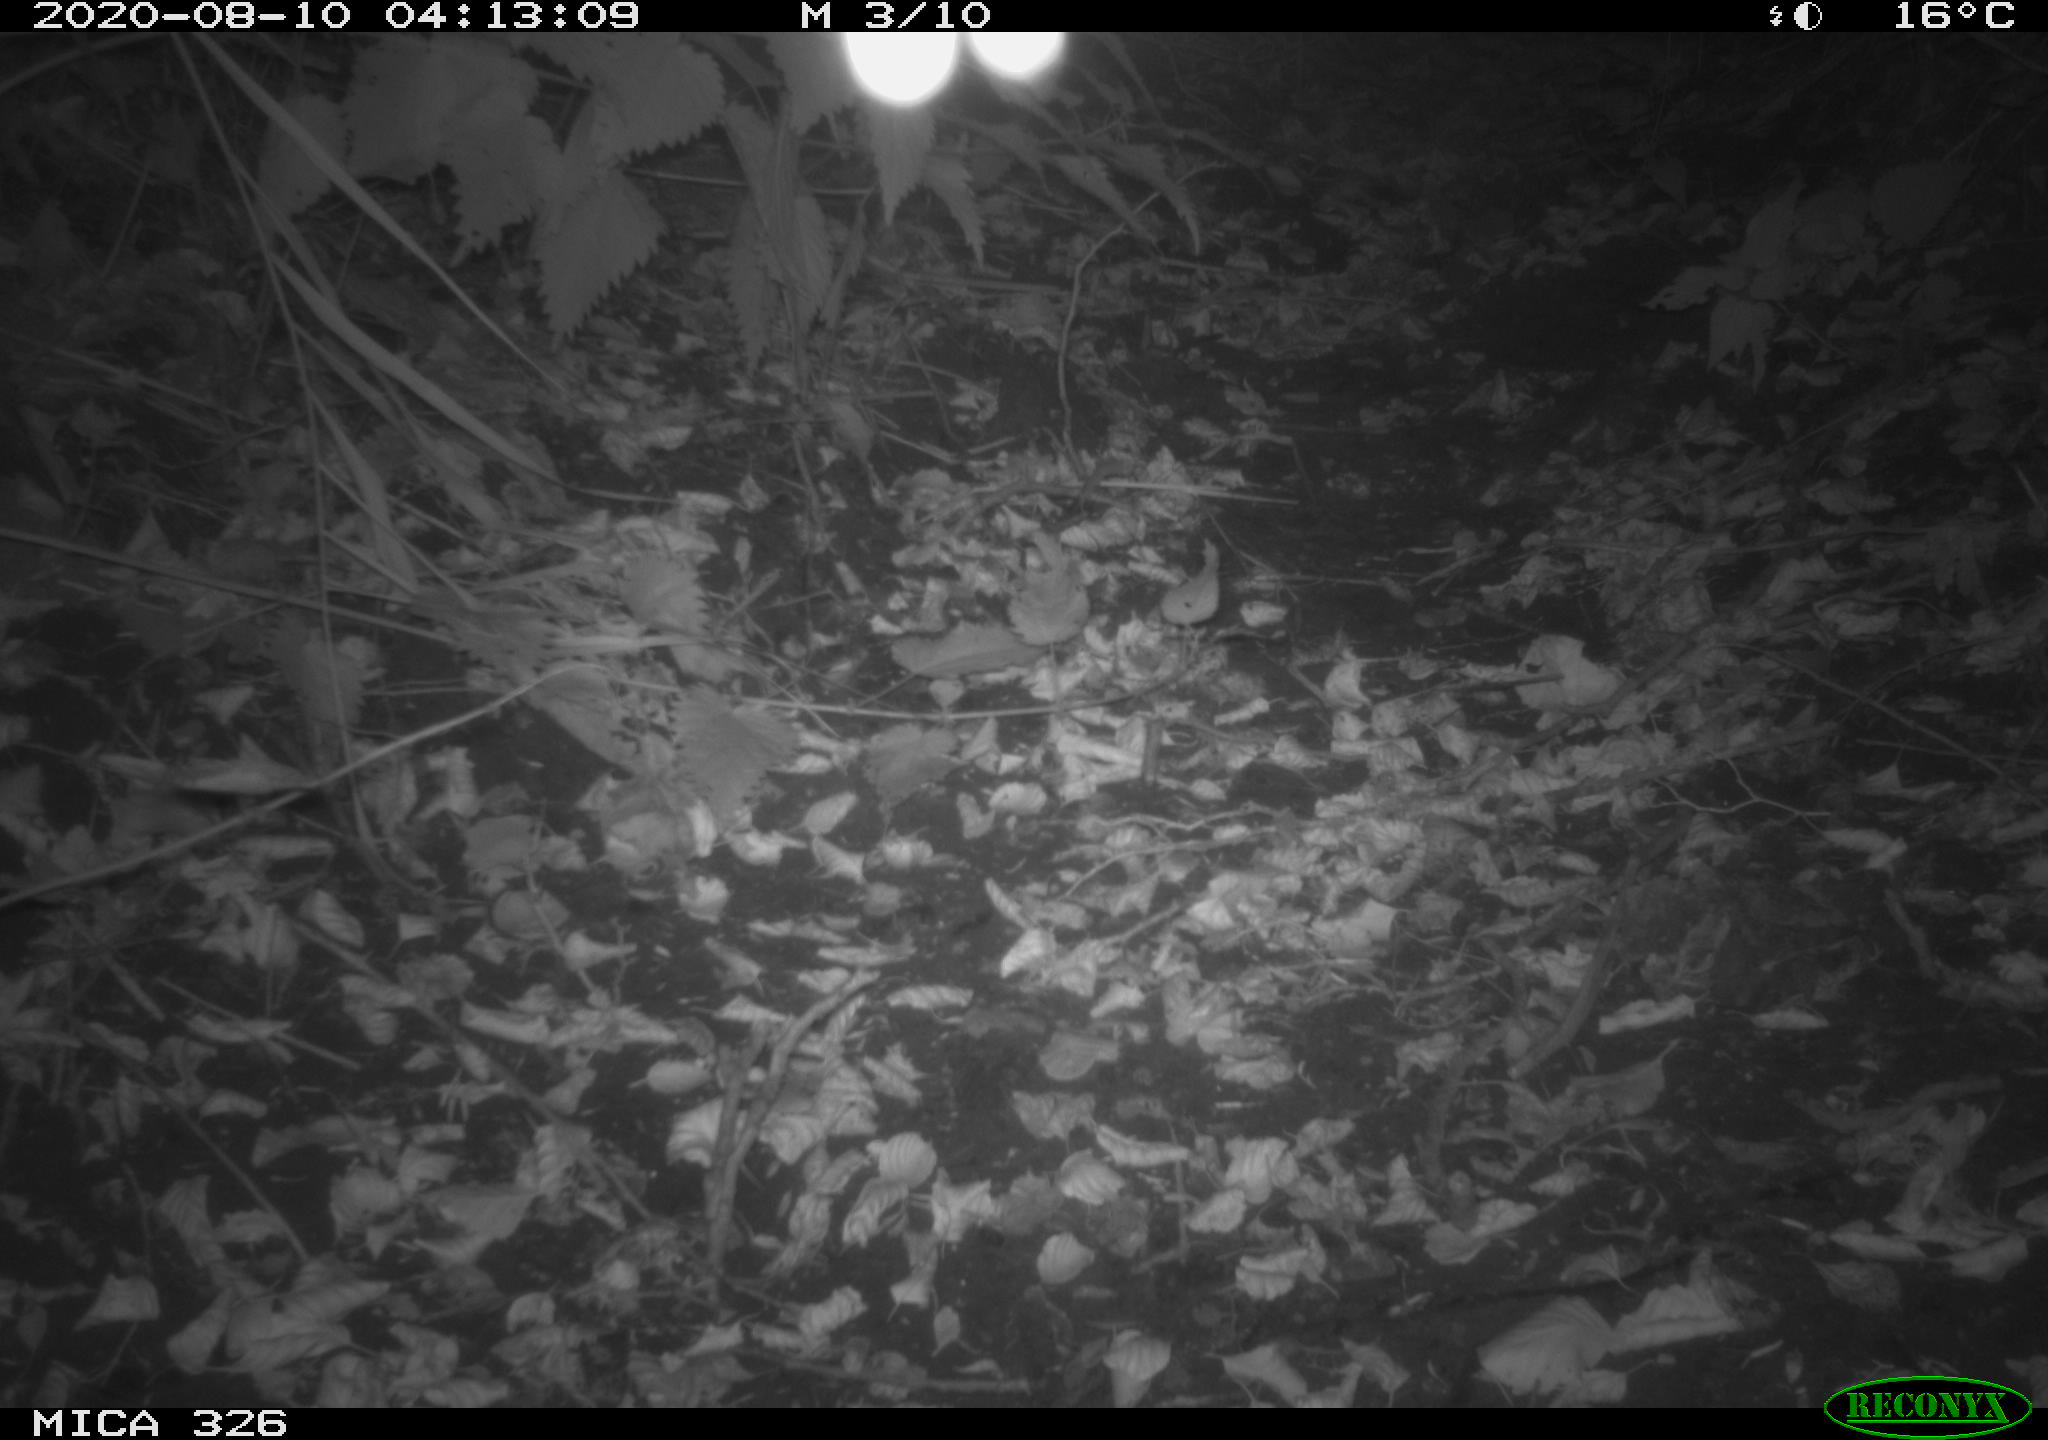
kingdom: Animalia
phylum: Chordata
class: Mammalia
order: Carnivora
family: Canidae
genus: Vulpes
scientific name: Vulpes vulpes
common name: Red fox
